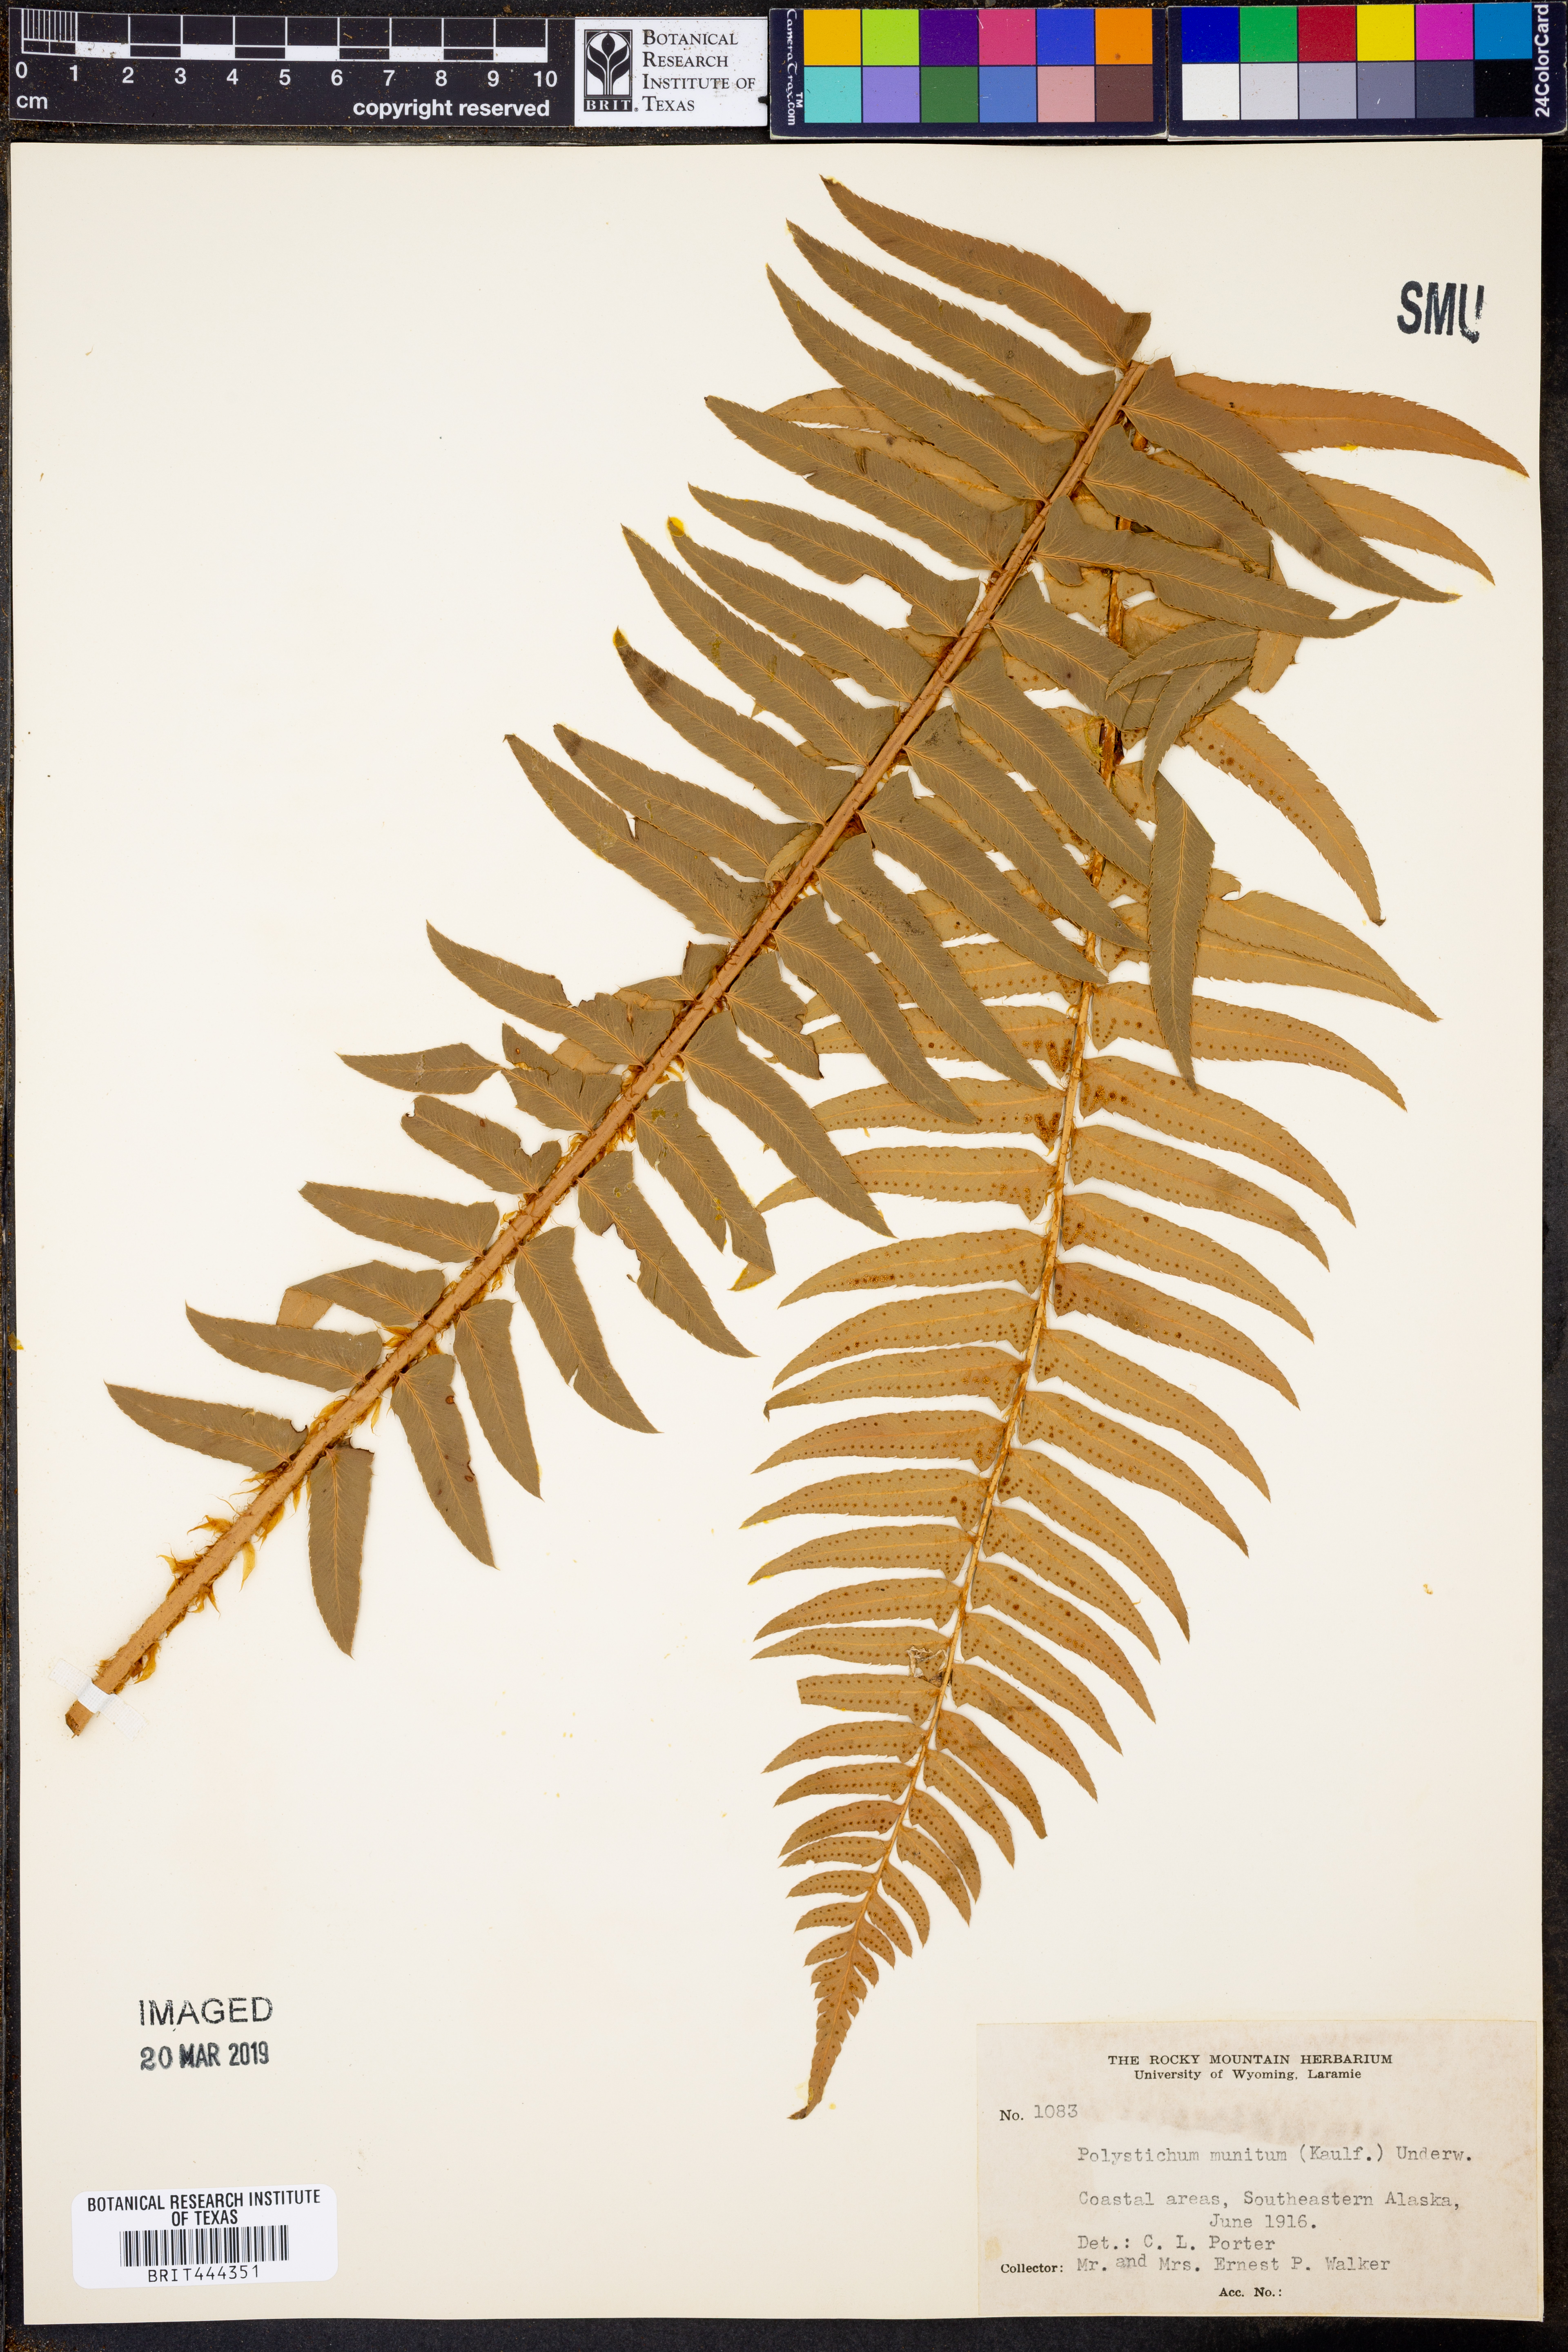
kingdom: Plantae
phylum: Tracheophyta
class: Polypodiopsida
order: Polypodiales
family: Dryopteridaceae
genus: Polystichum
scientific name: Polystichum munitum
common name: Western sword-fern
